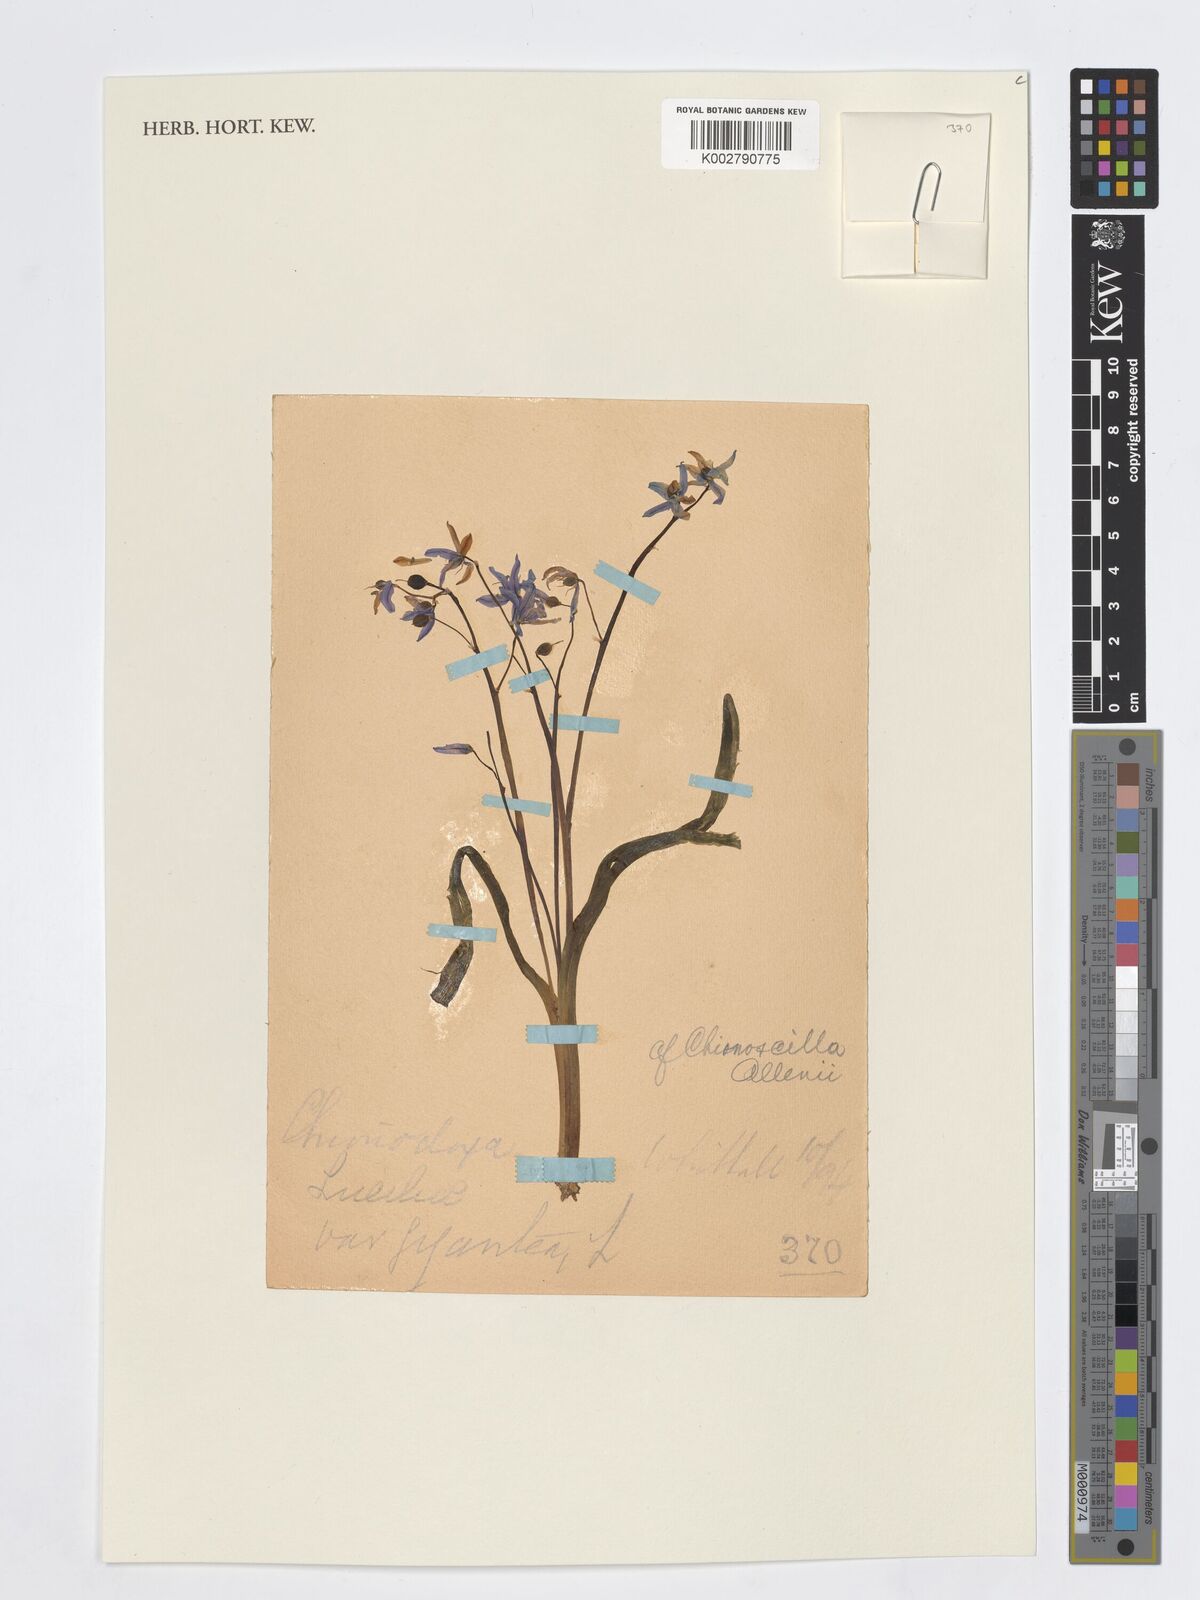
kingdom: Plantae
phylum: Tracheophyta
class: Liliopsida
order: Asparagales
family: Asparagaceae
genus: Scilla
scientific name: Scilla allenii
